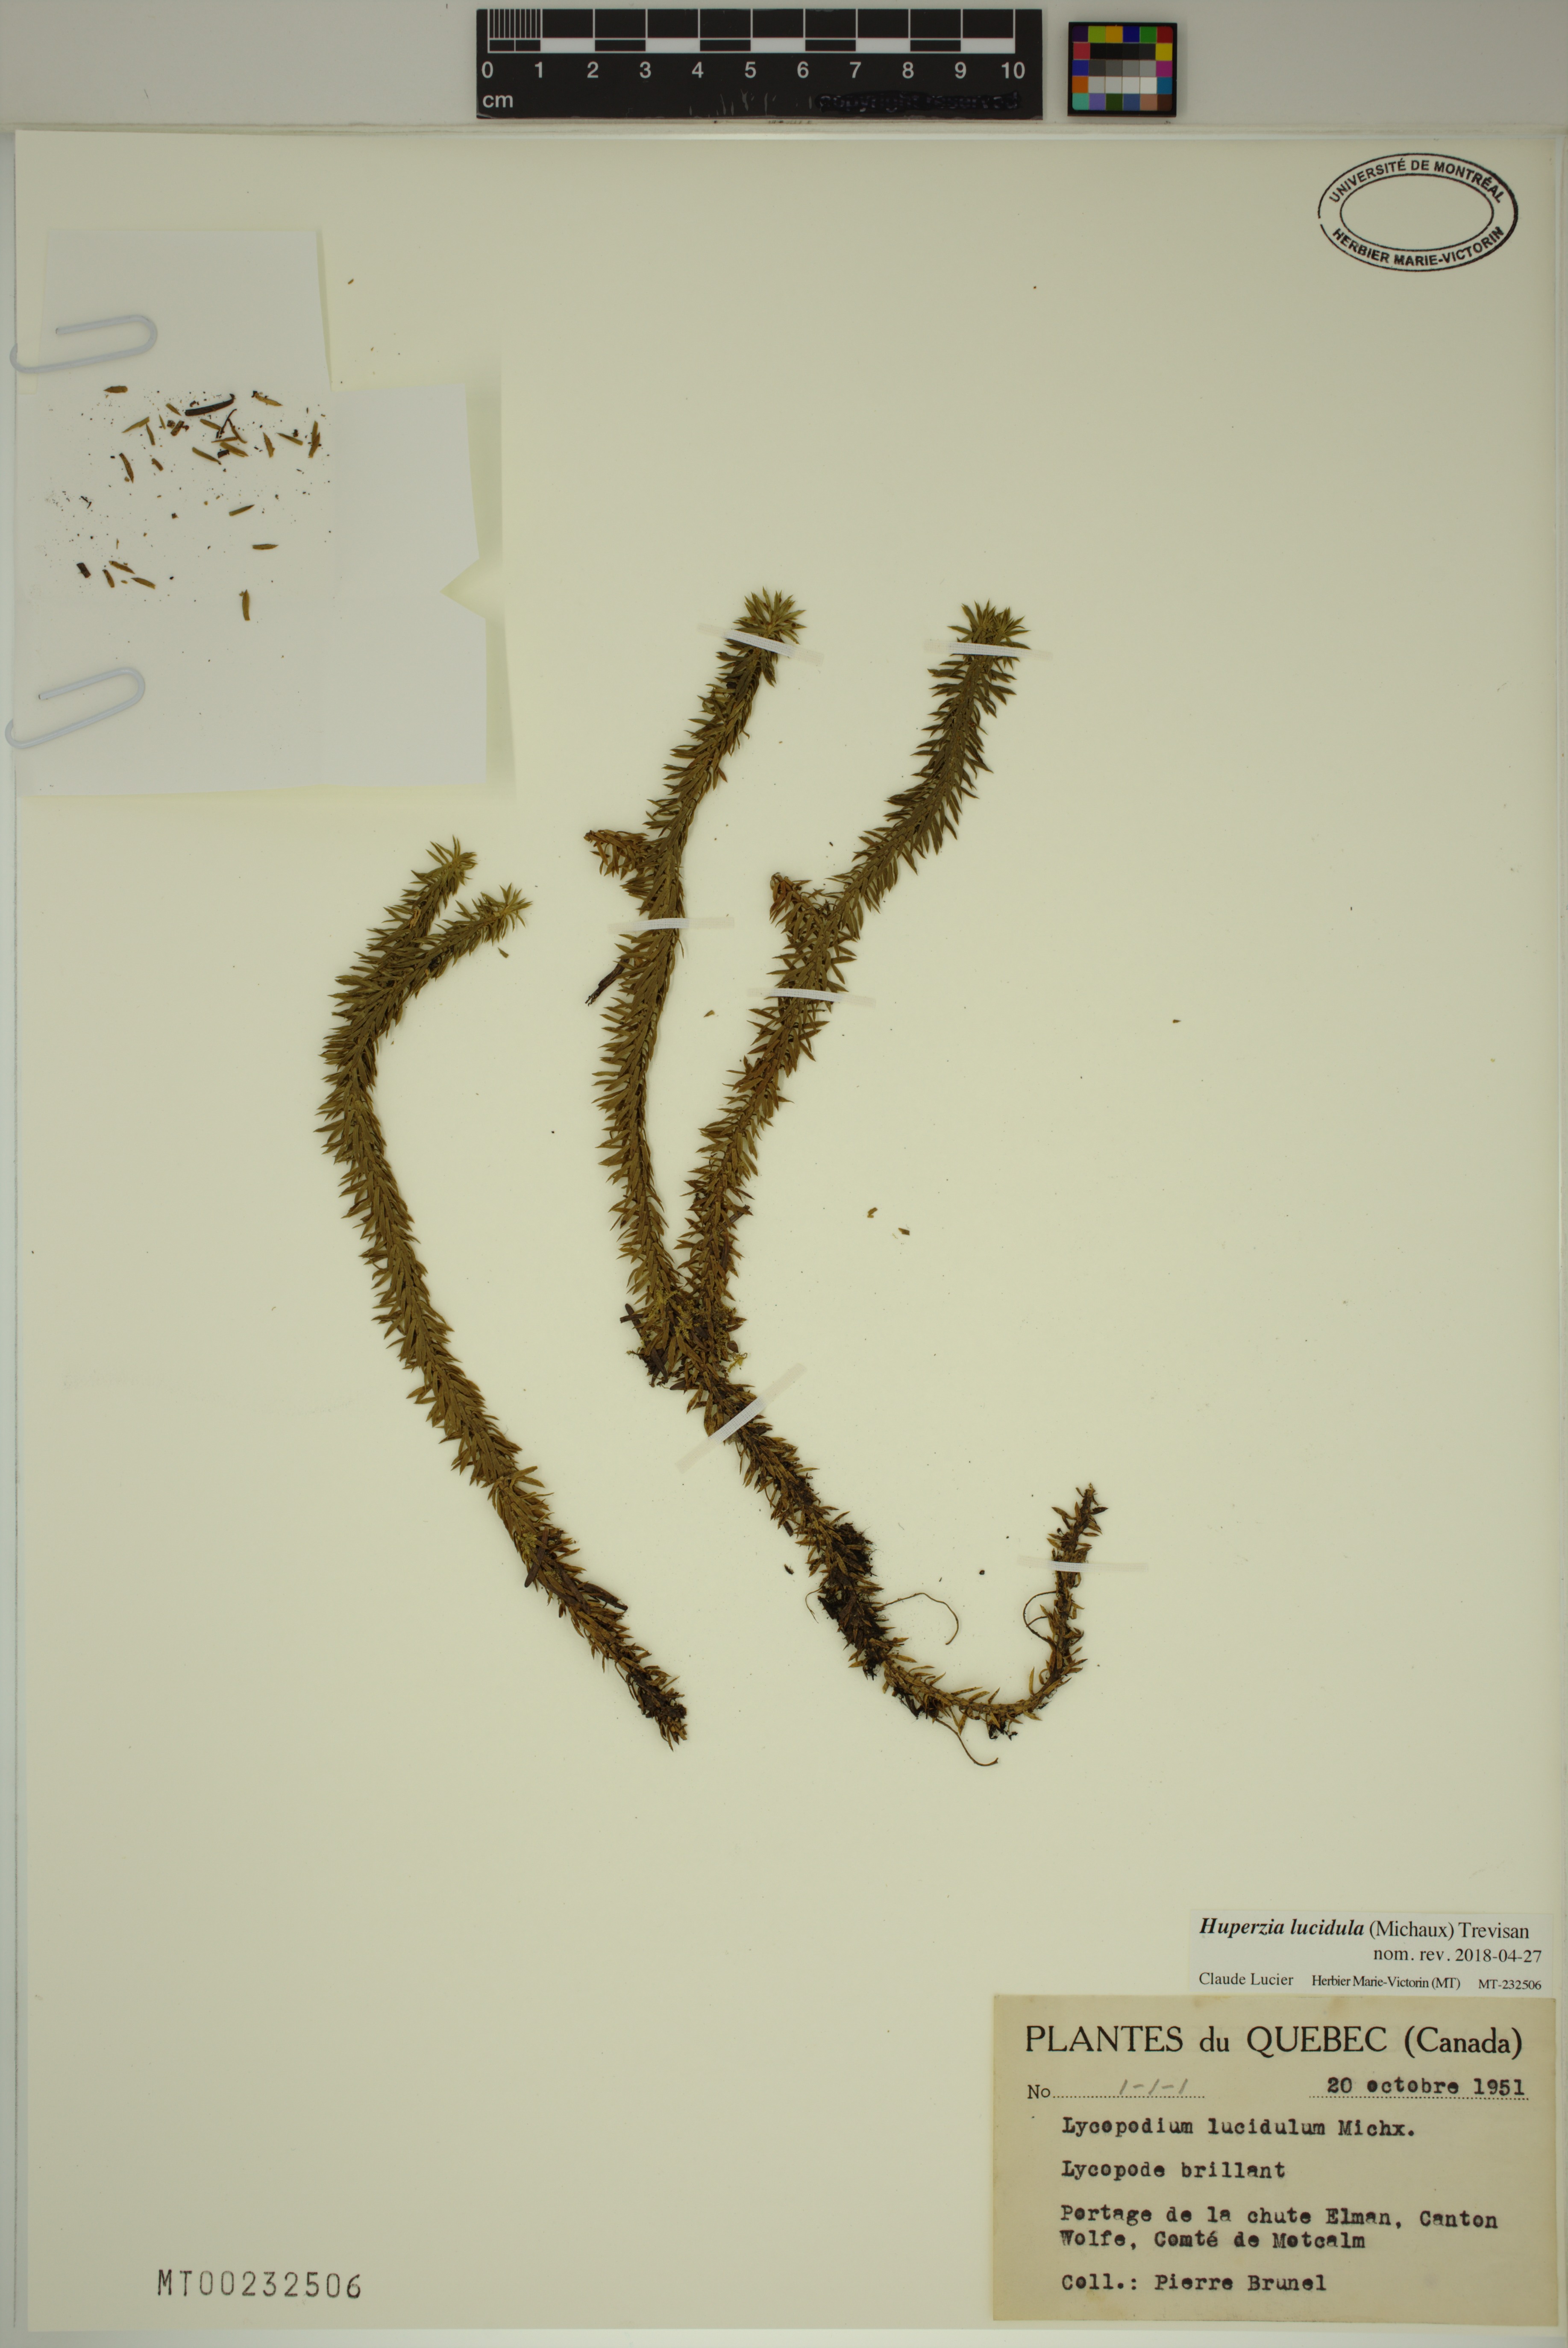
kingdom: Plantae
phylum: Tracheophyta
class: Lycopodiopsida
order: Lycopodiales
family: Lycopodiaceae
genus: Huperzia
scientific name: Huperzia lucidula
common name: Shining clubmoss
